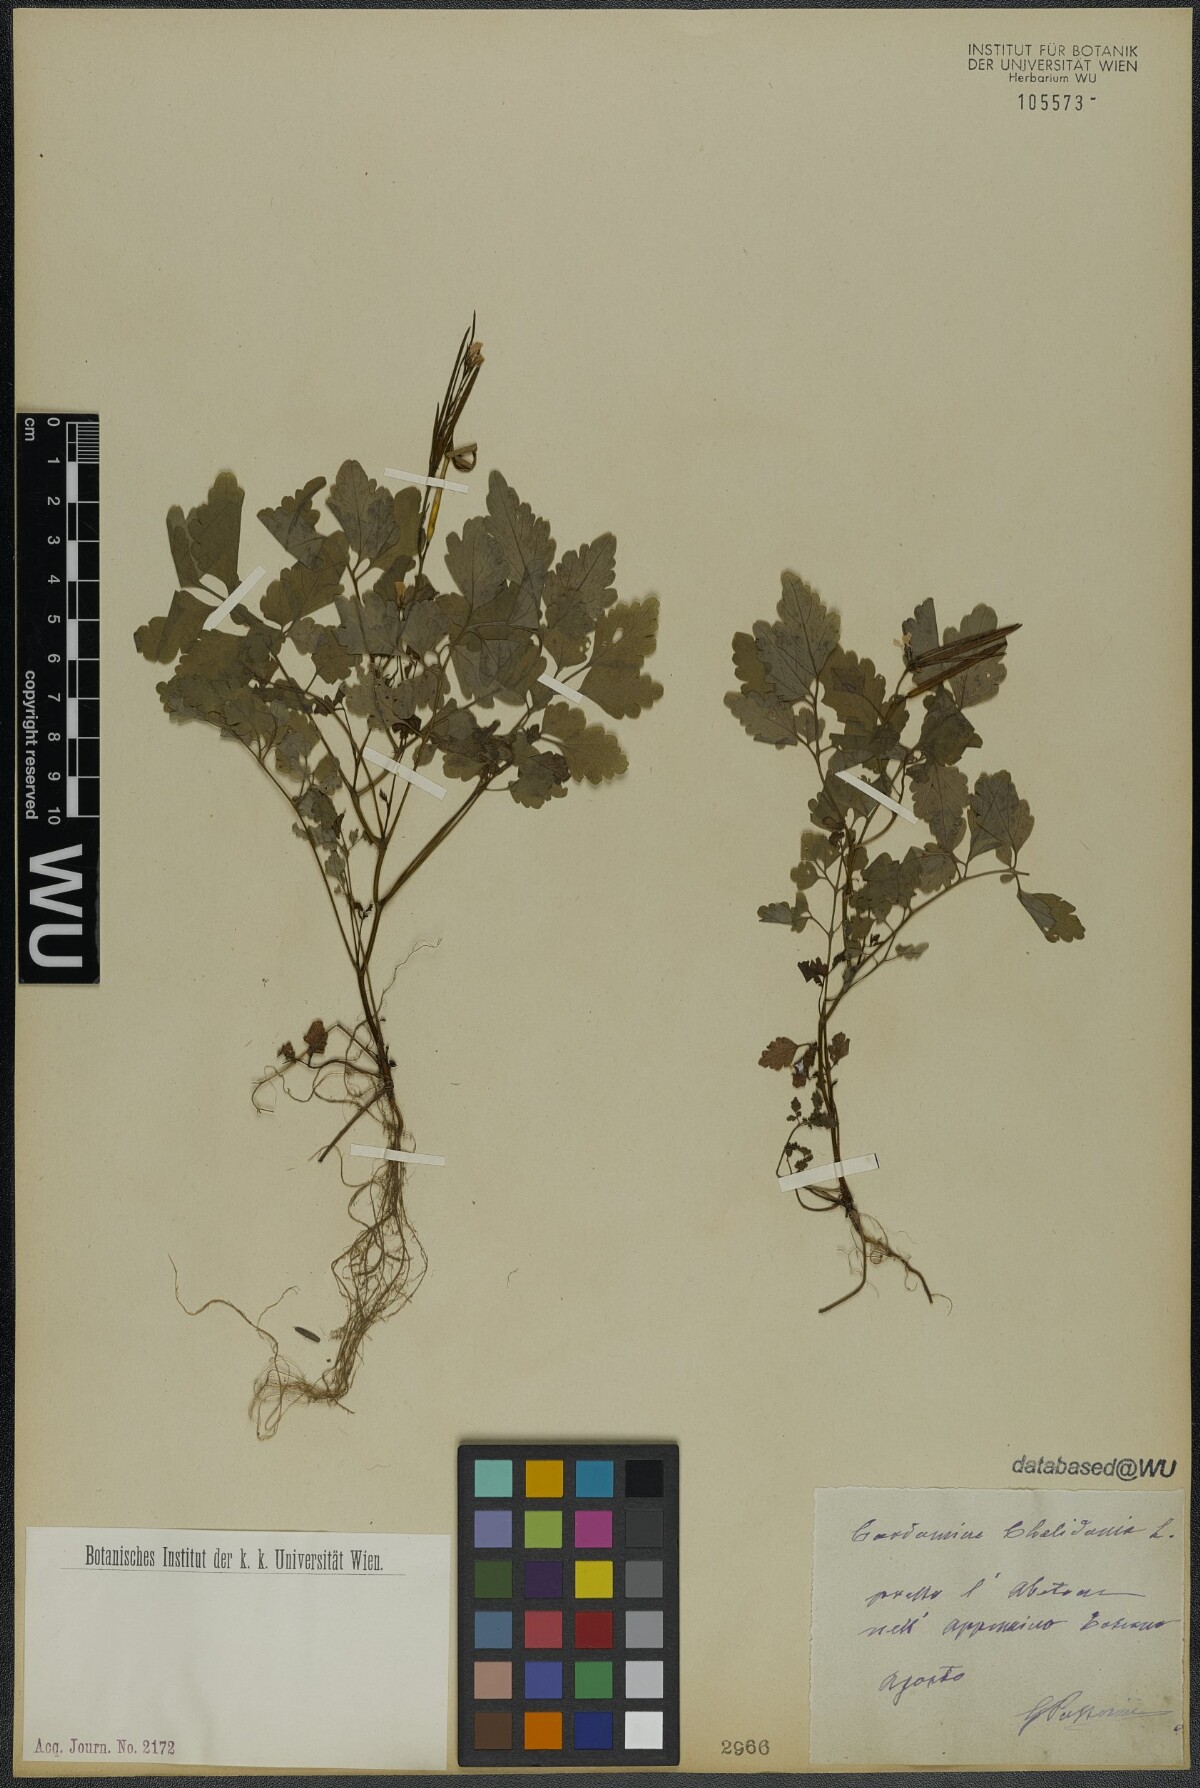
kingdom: Plantae
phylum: Tracheophyta
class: Magnoliopsida
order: Brassicales
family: Brassicaceae
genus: Cardamine
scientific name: Cardamine chelidonia
